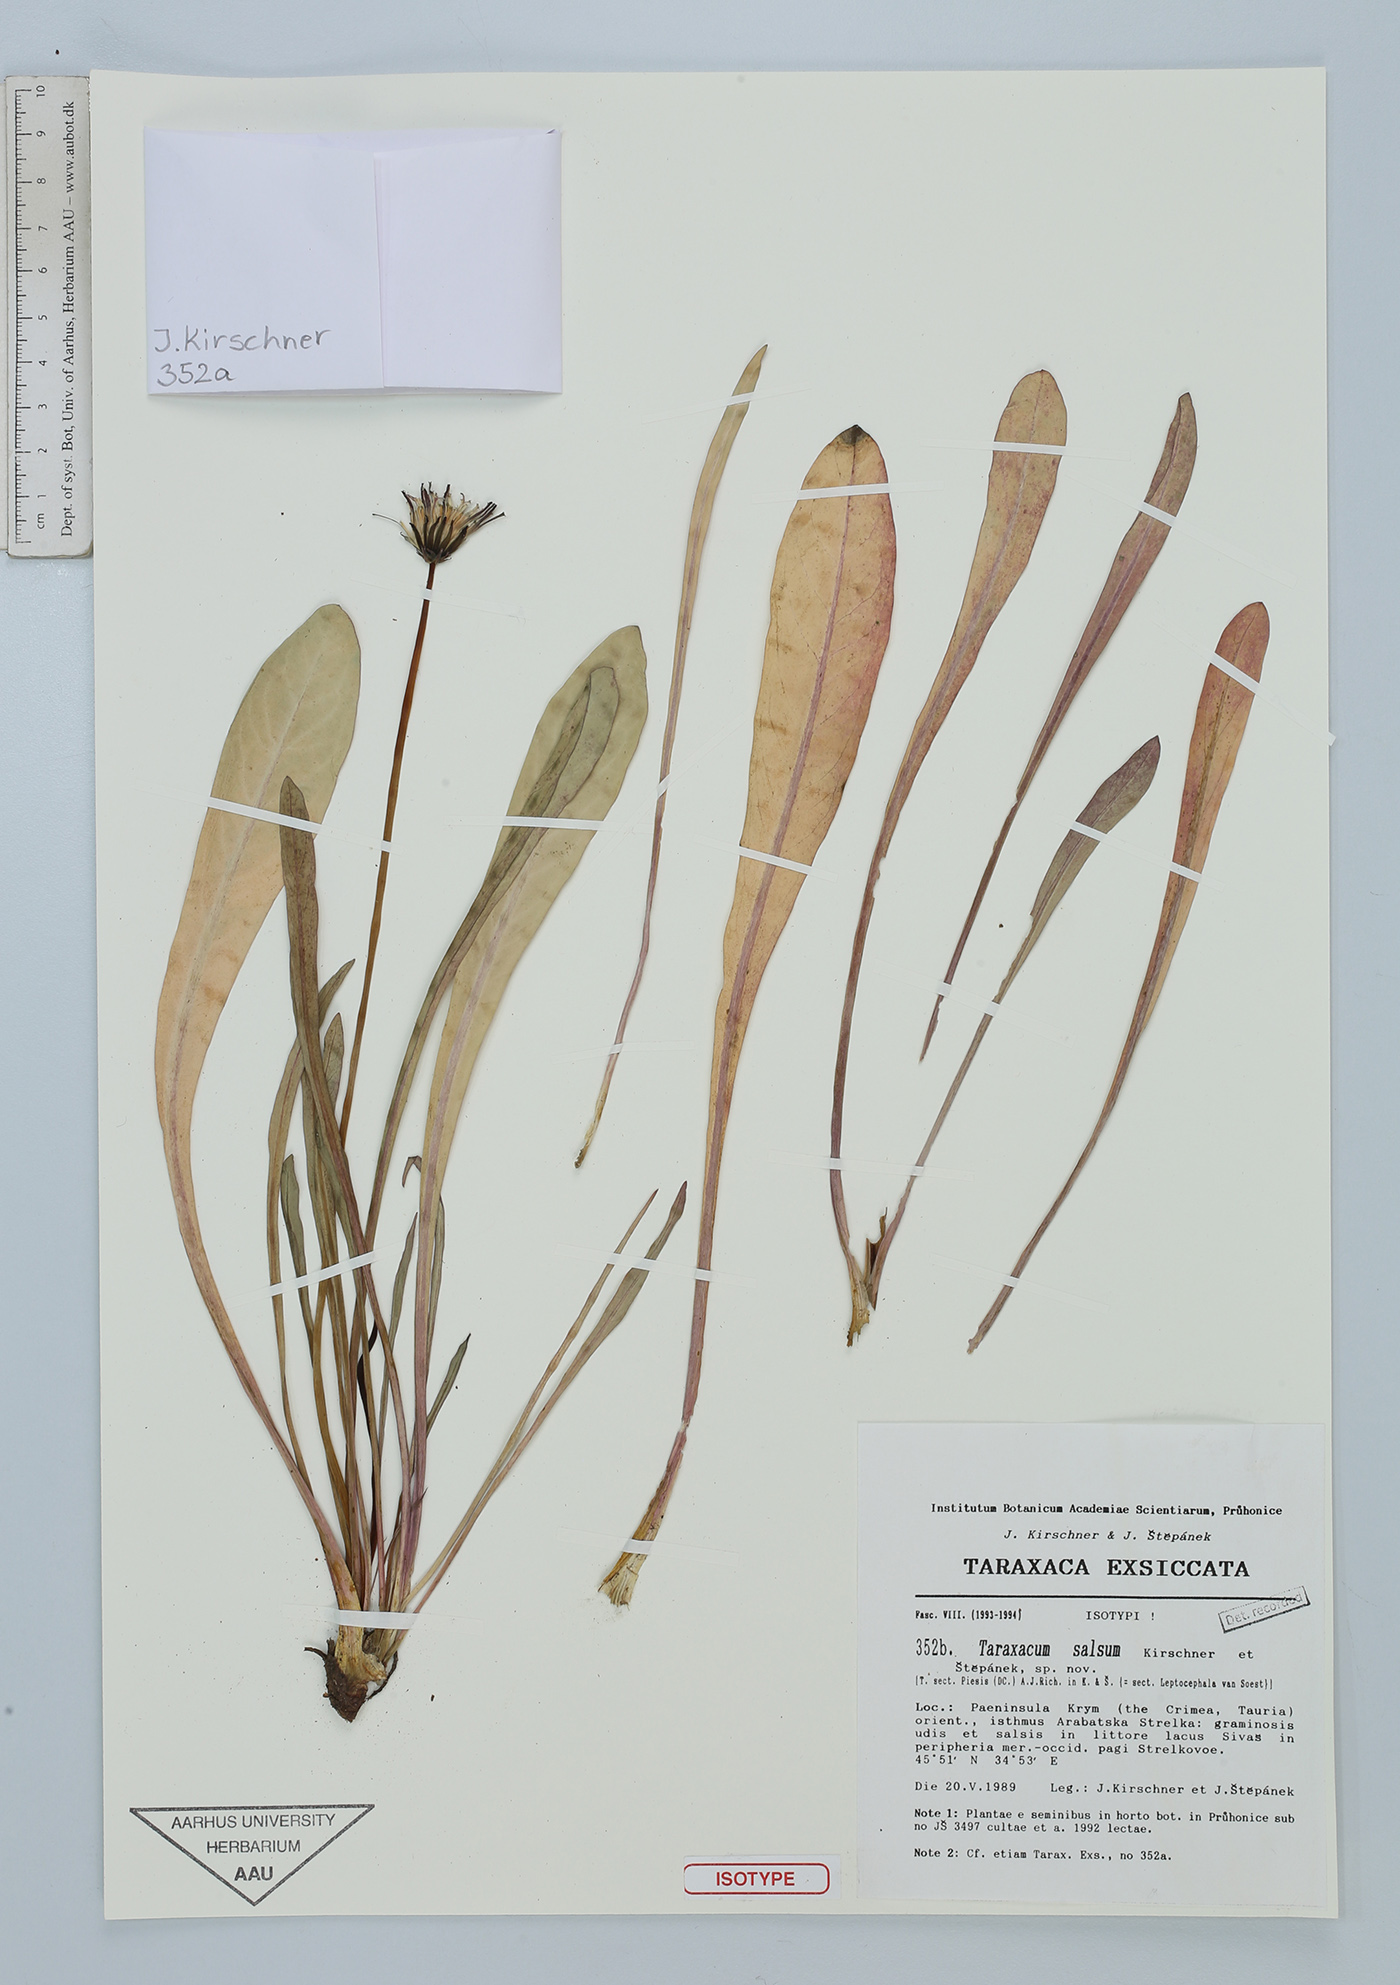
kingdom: Plantae
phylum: Tracheophyta
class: Magnoliopsida
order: Asterales
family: Asteraceae
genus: Taraxacum
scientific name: Taraxacum salsum
